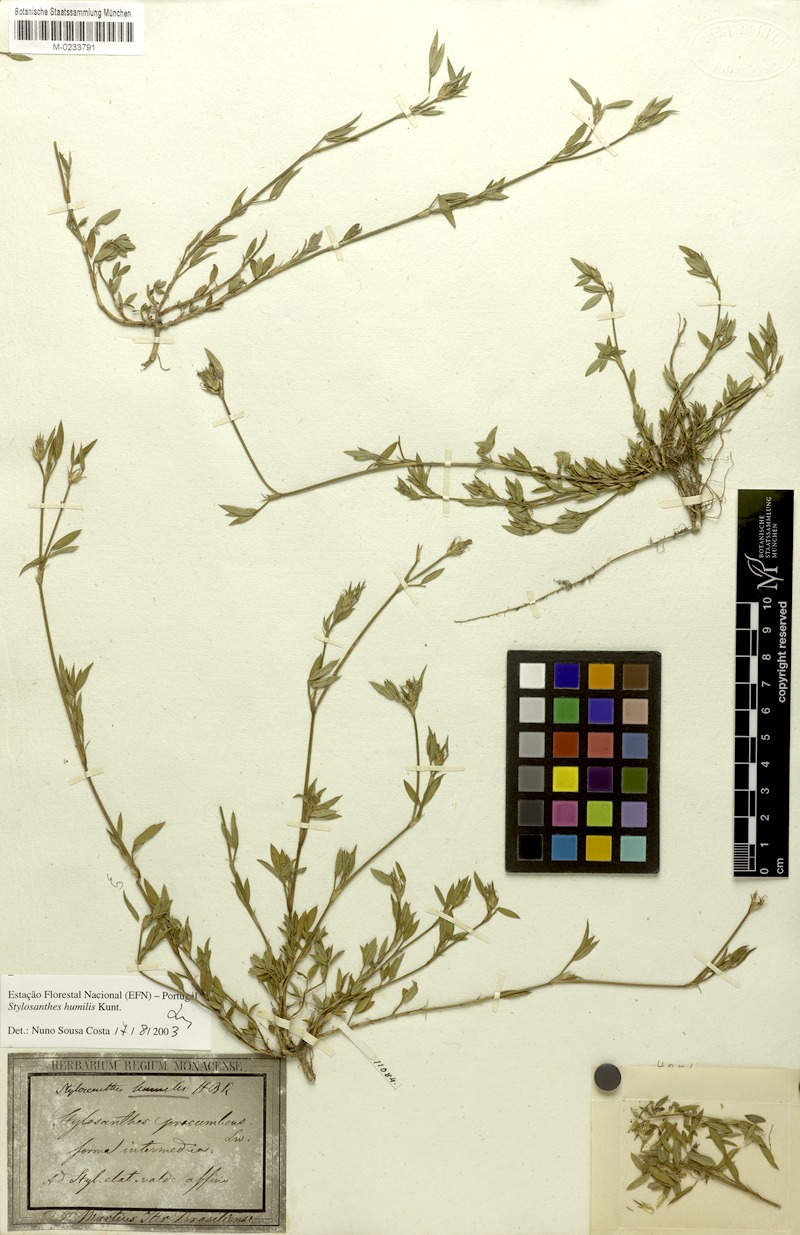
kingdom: Plantae
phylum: Tracheophyta
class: Magnoliopsida
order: Fabales
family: Fabaceae
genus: Stylosanthes
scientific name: Stylosanthes humilis
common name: Townsville stylo
